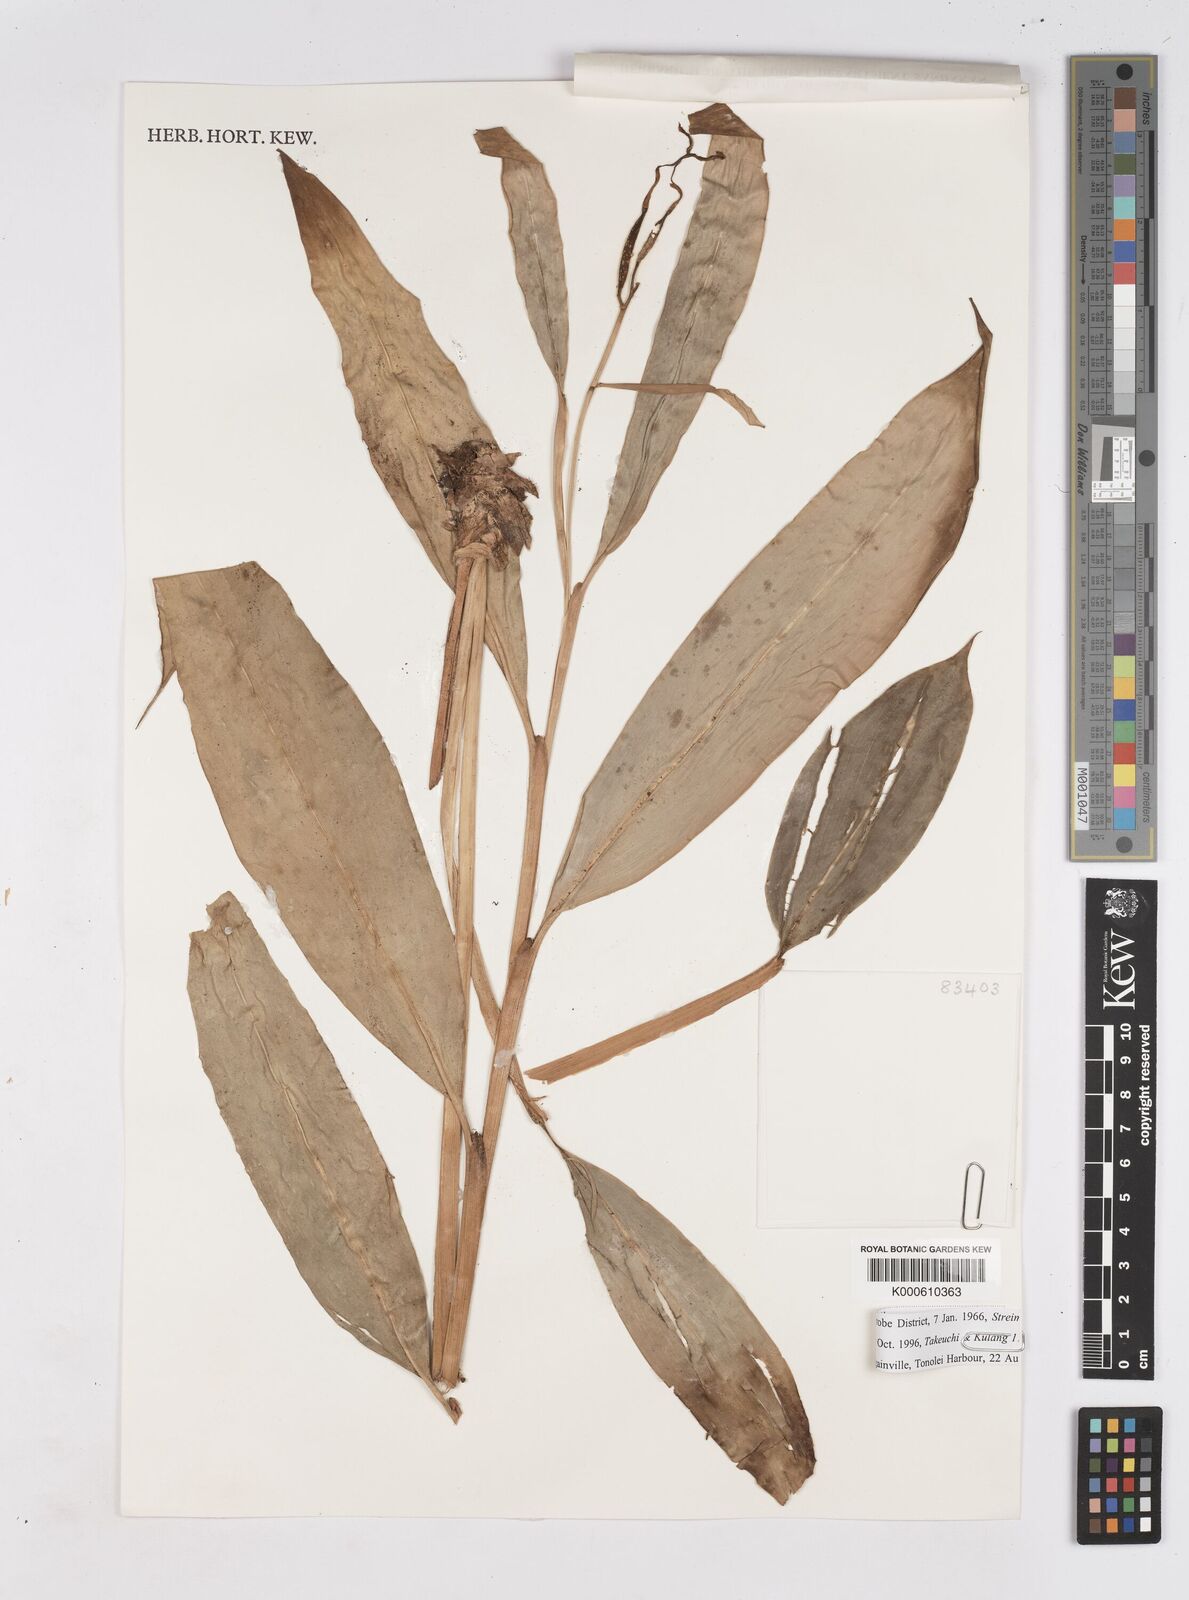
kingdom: Plantae
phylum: Tracheophyta
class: Liliopsida
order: Zingiberales
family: Zingiberaceae
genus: Burbidgea
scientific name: Burbidgea schizocheila
